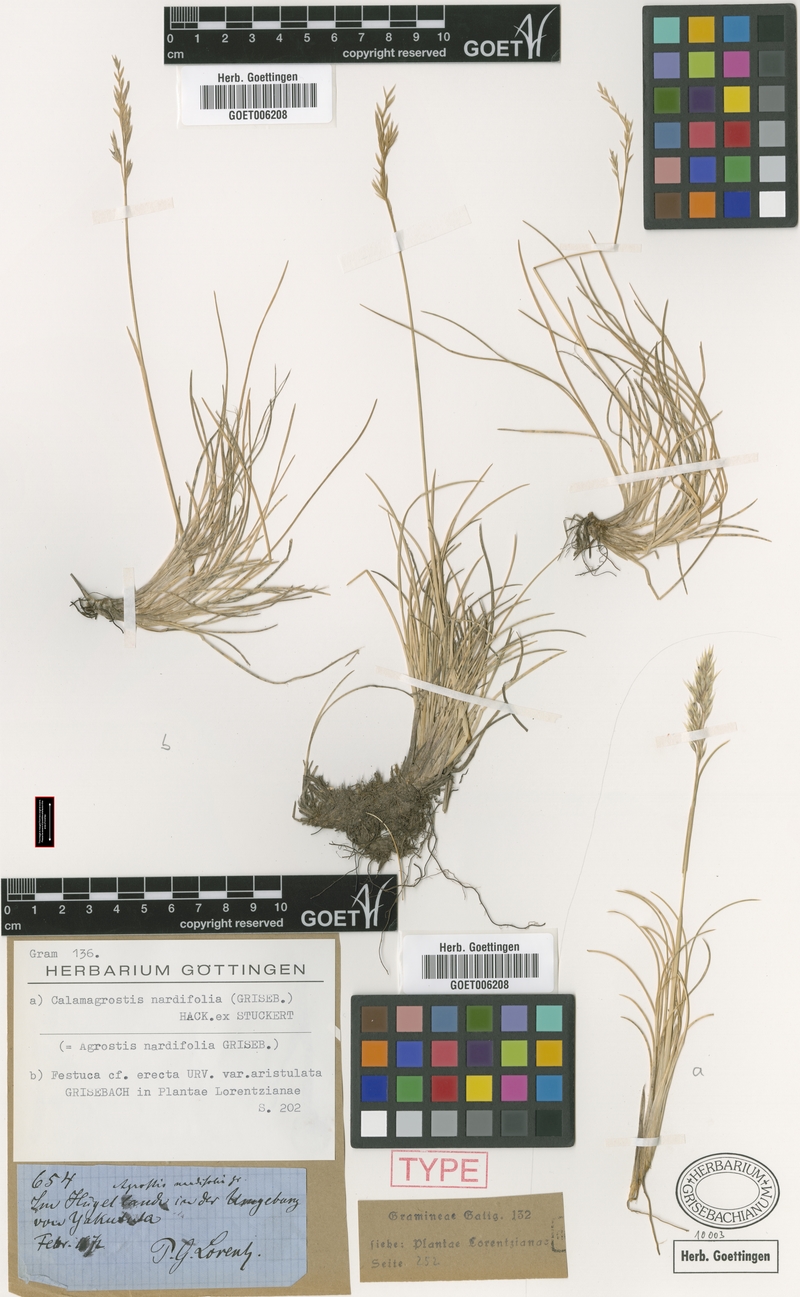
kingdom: Plantae
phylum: Tracheophyta
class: Liliopsida
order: Poales
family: Poaceae
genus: Cinnagrostis
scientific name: Cinnagrostis velutina
